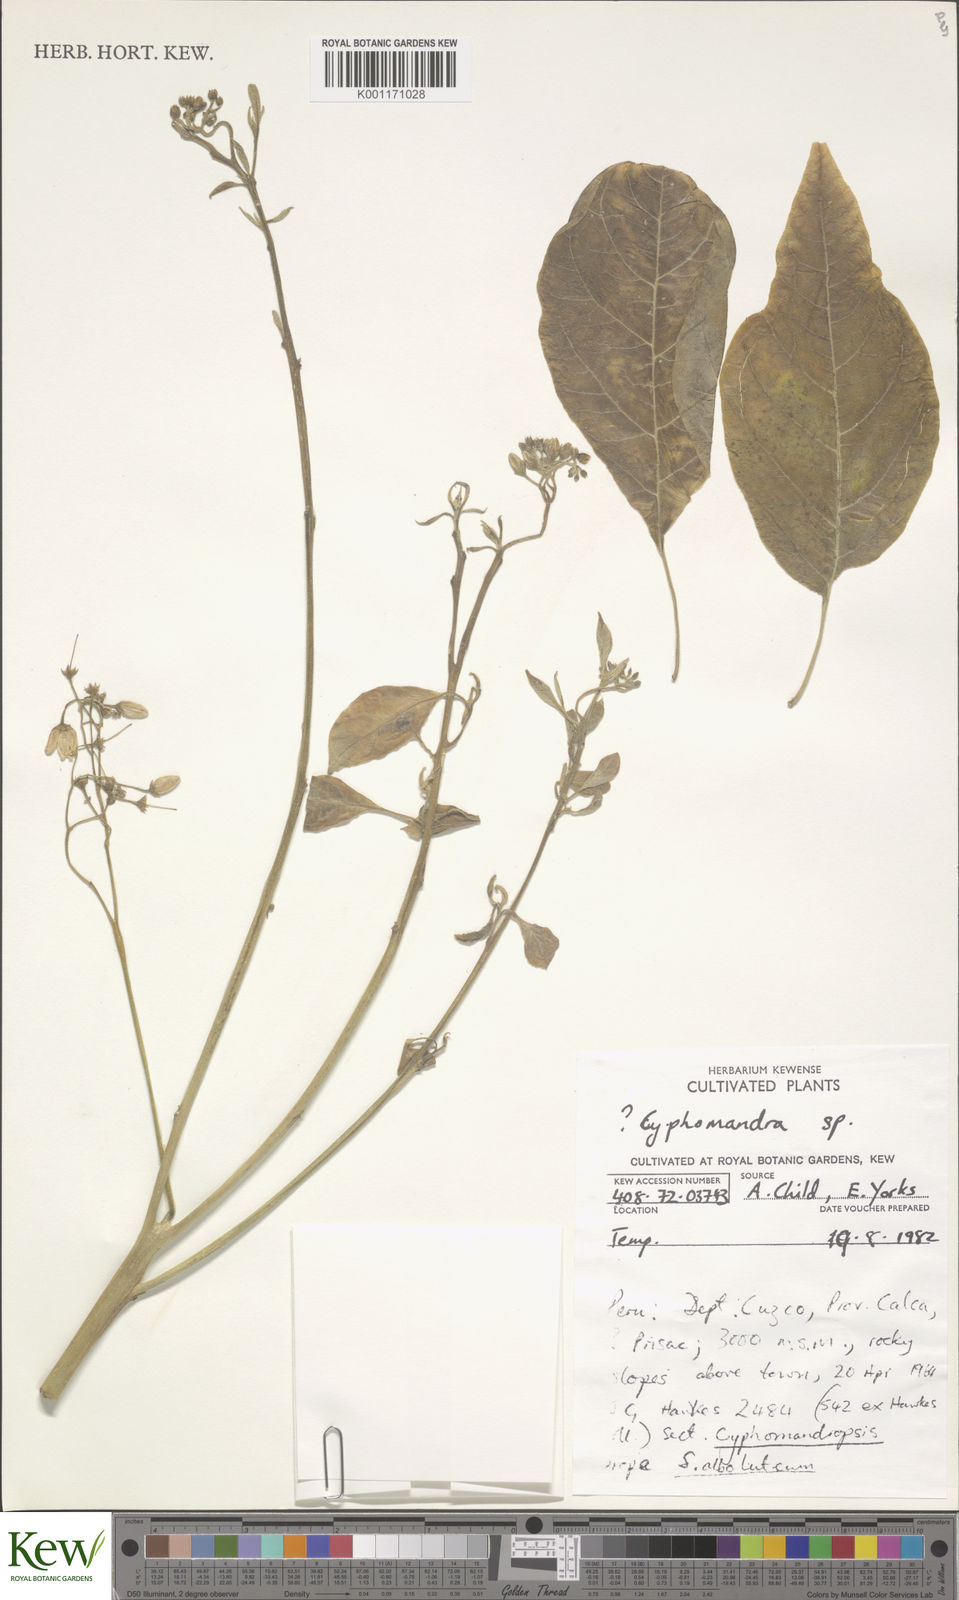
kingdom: Plantae
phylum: Tracheophyta
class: Magnoliopsida
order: Solanales
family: Solanaceae
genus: Solanum
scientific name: Solanum
